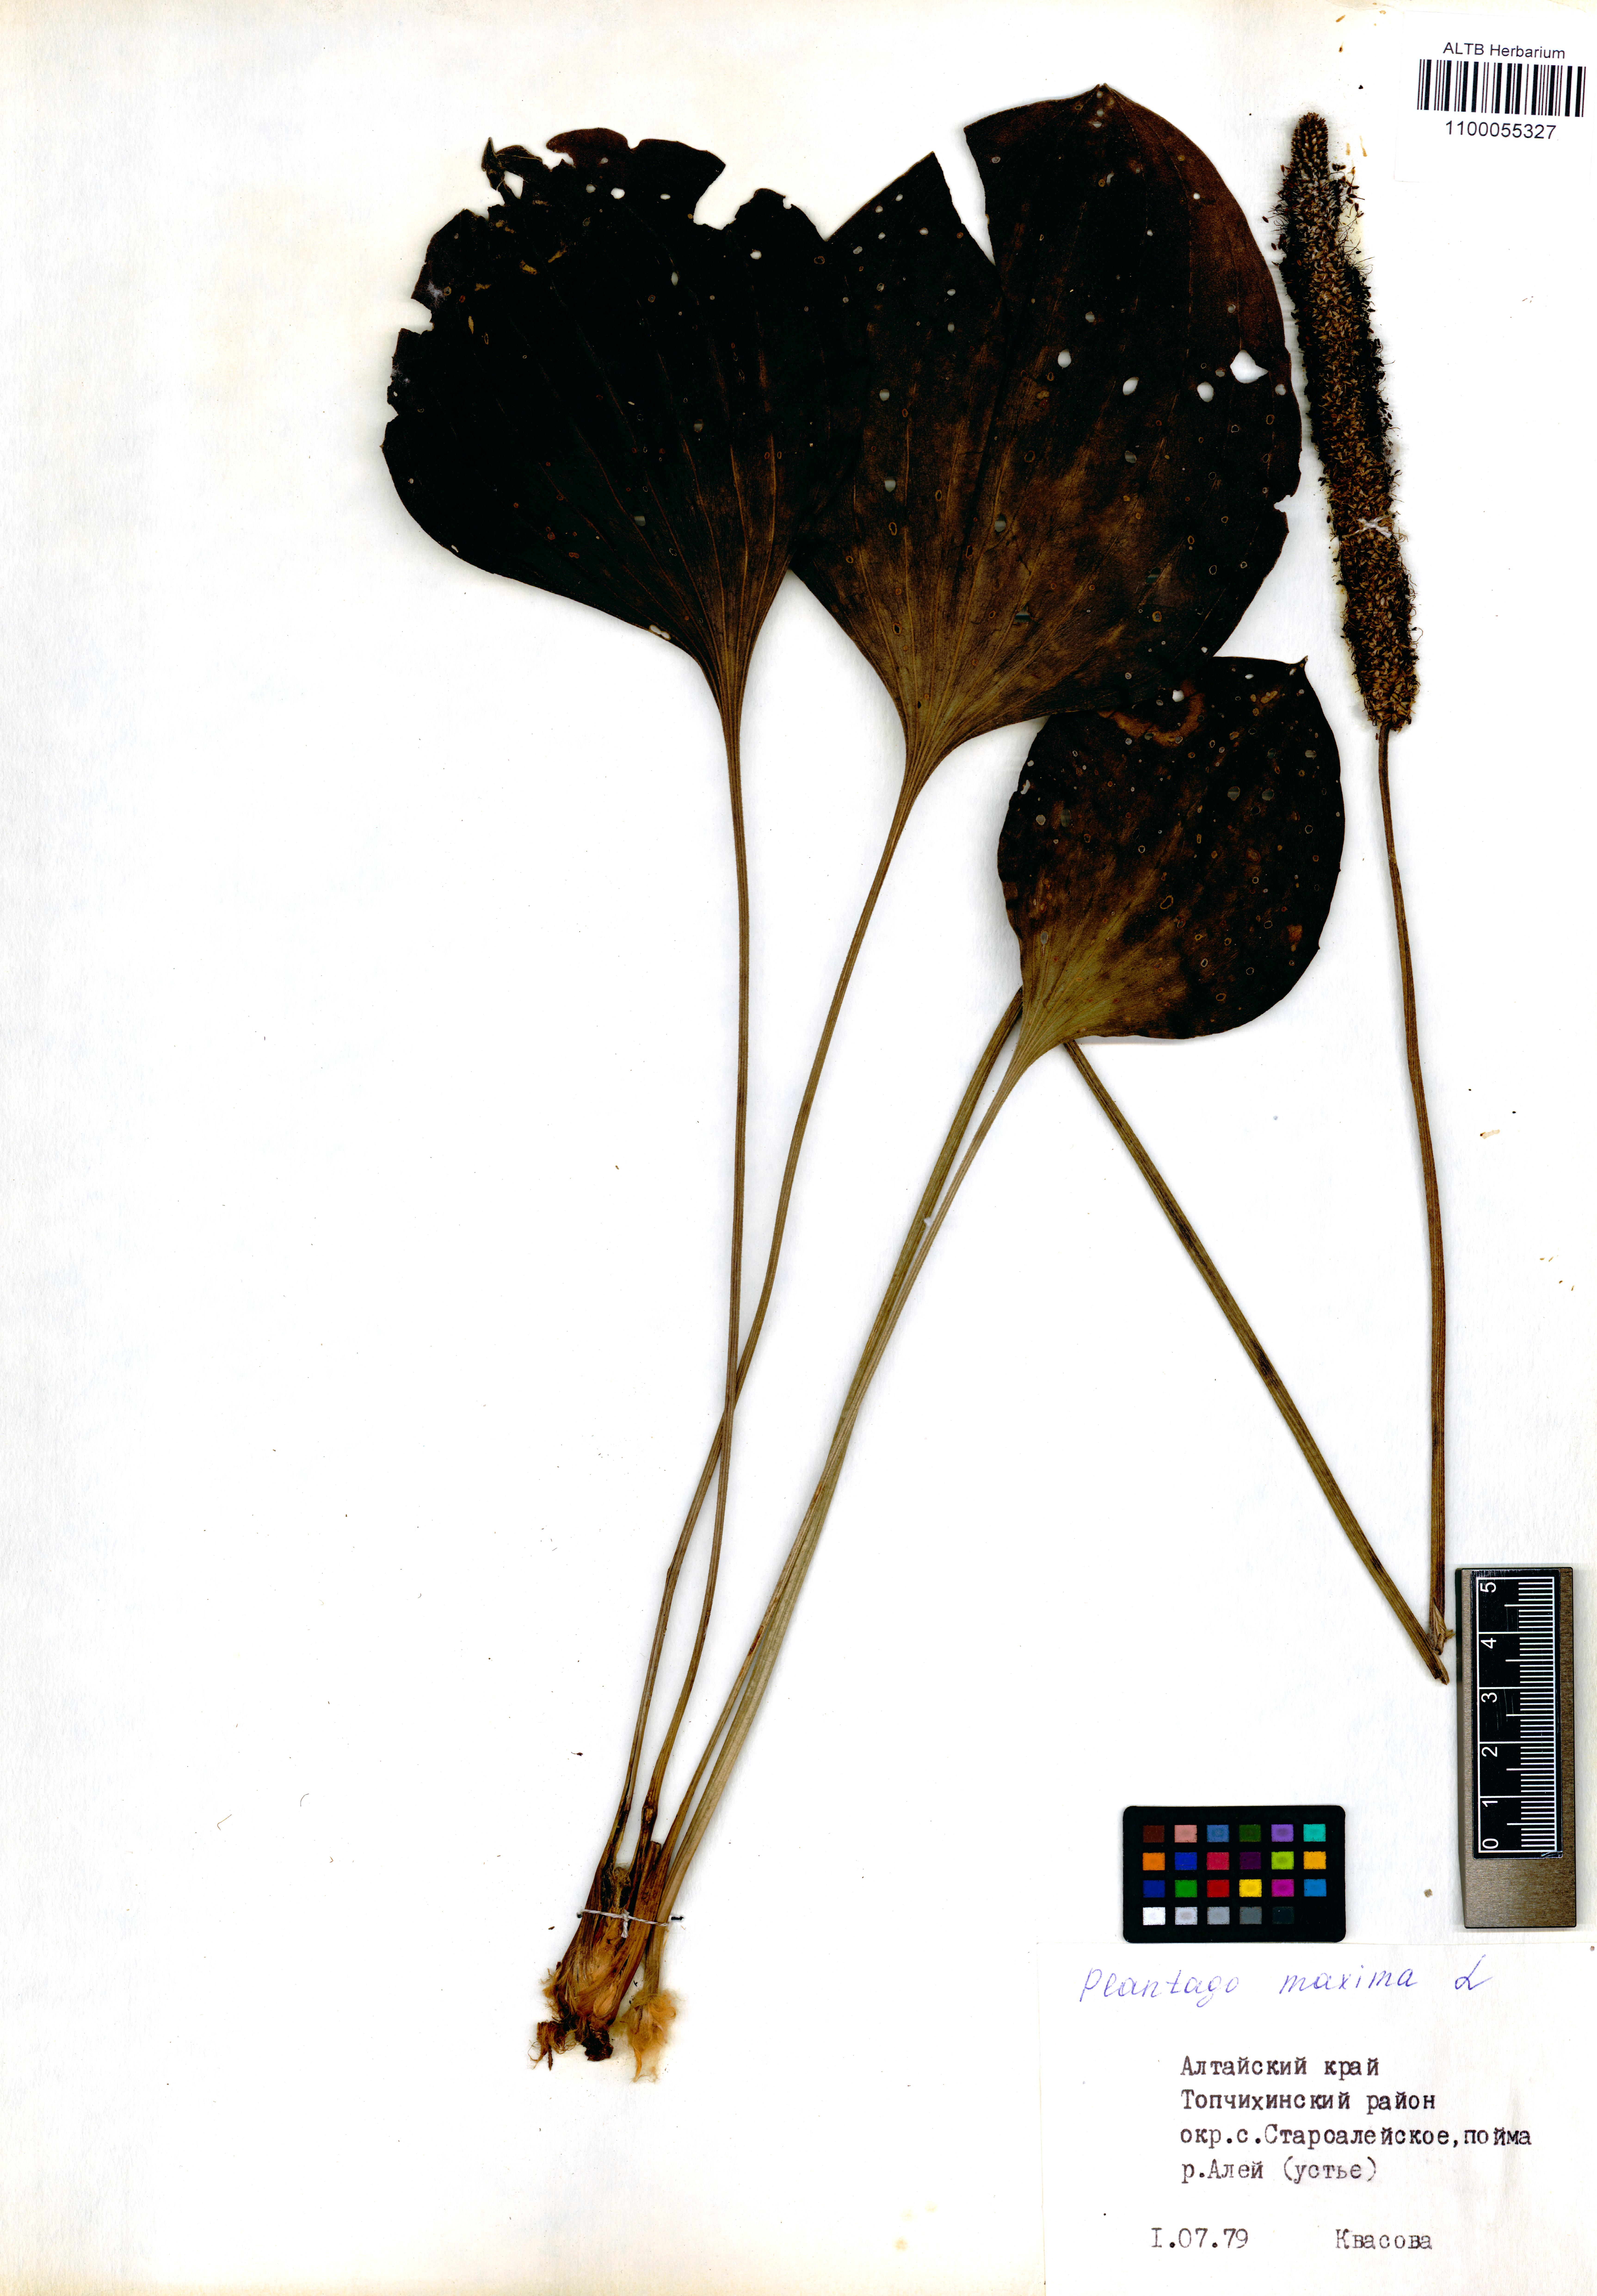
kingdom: Plantae
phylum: Tracheophyta
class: Magnoliopsida
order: Lamiales
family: Plantaginaceae
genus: Plantago
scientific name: Plantago maxima
